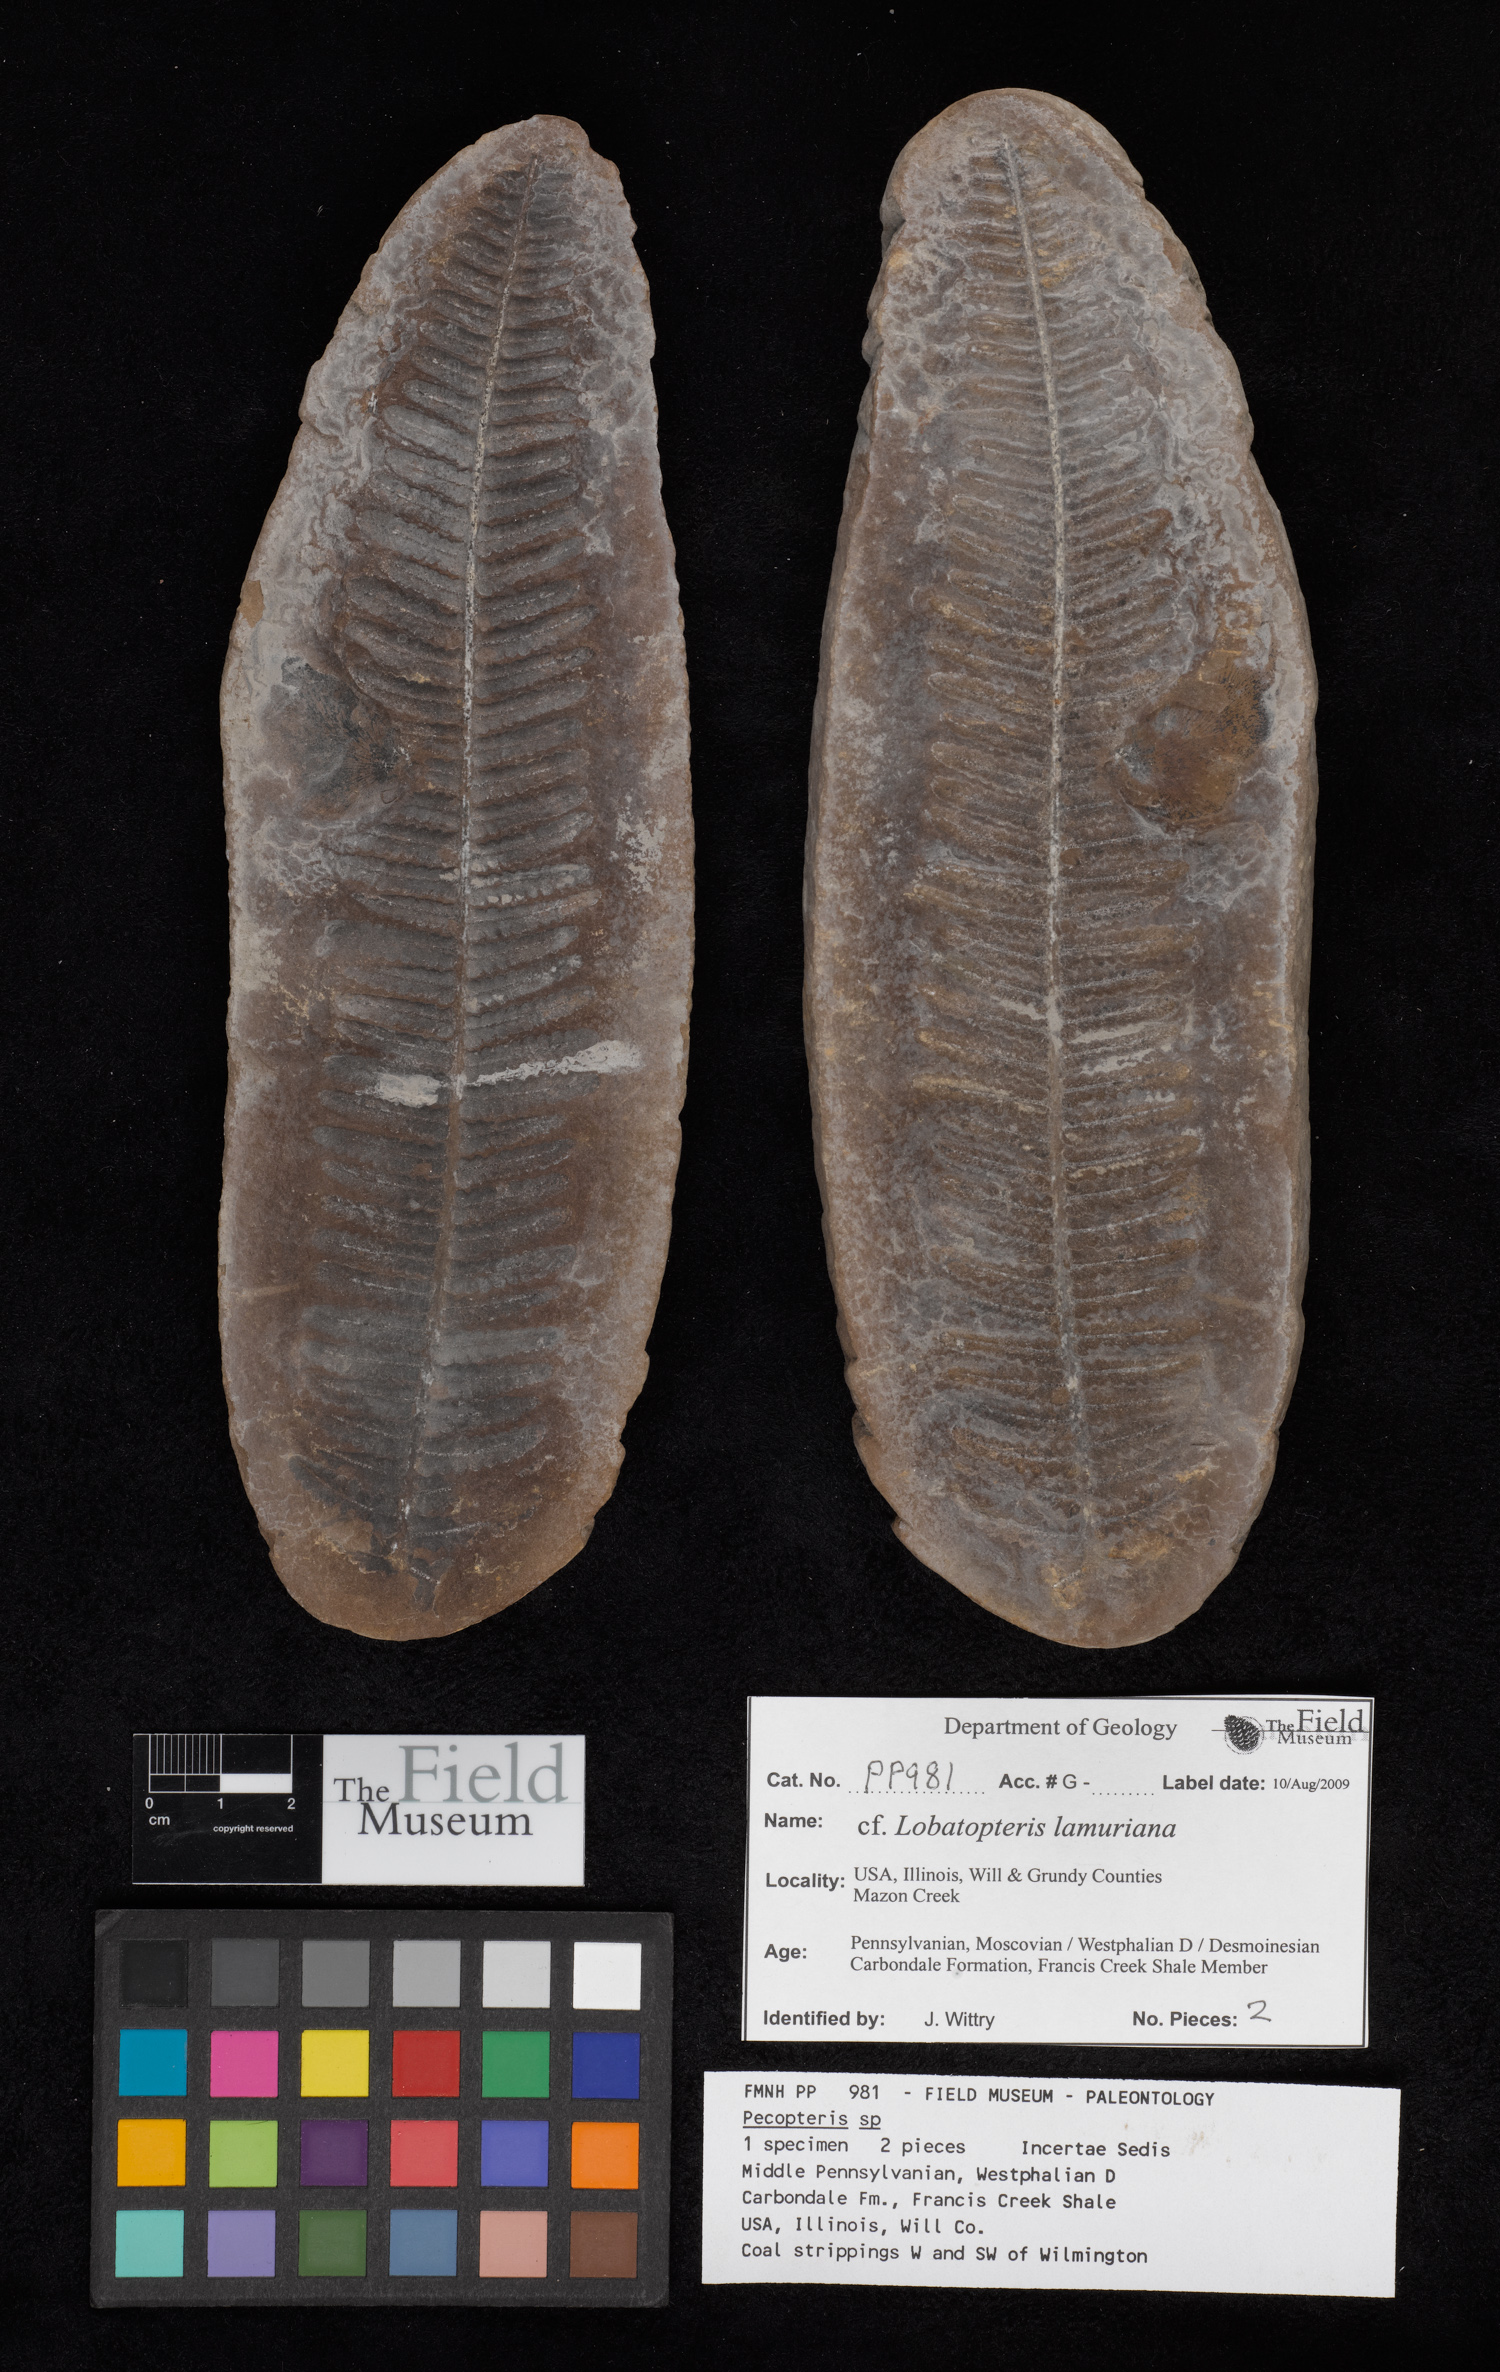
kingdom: Plantae
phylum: Tracheophyta
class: Polypodiopsida
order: Marattiales
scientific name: Marattiales
